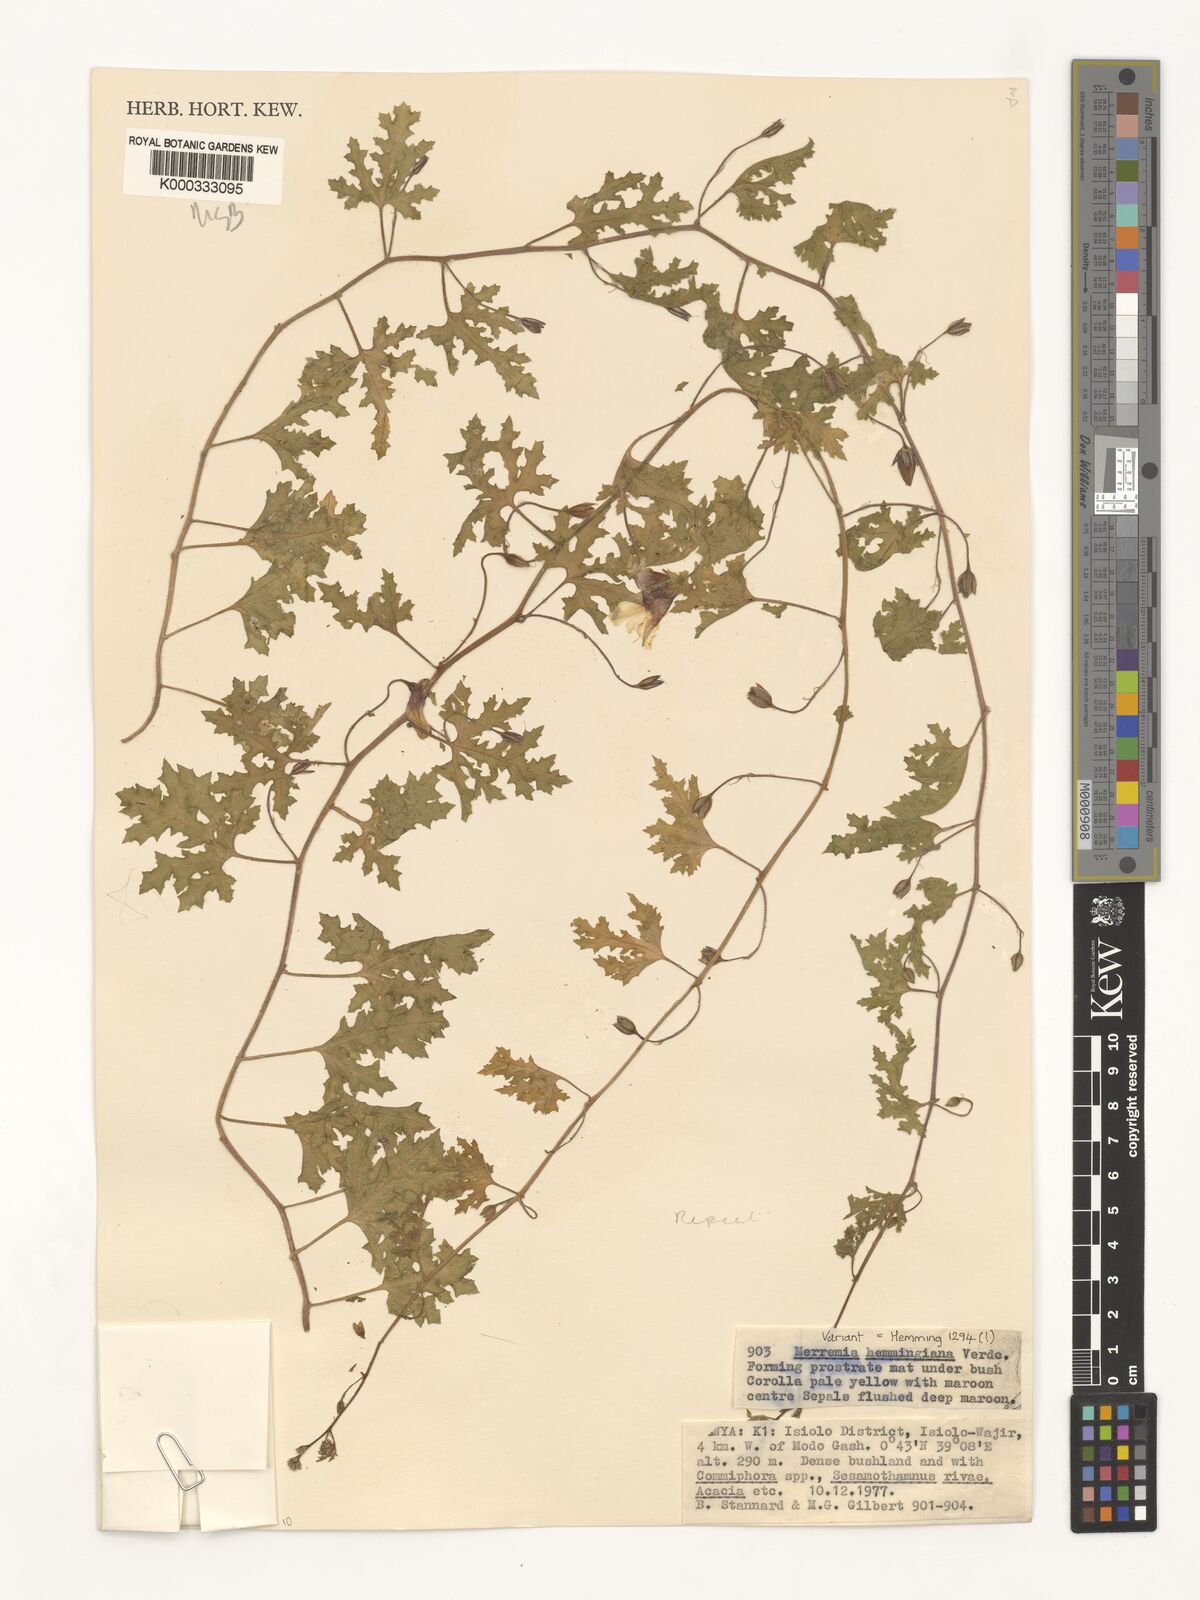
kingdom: Plantae
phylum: Tracheophyta
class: Magnoliopsida
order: Solanales
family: Convolvulaceae
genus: Merremia
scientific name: Merremia hemmingiana
